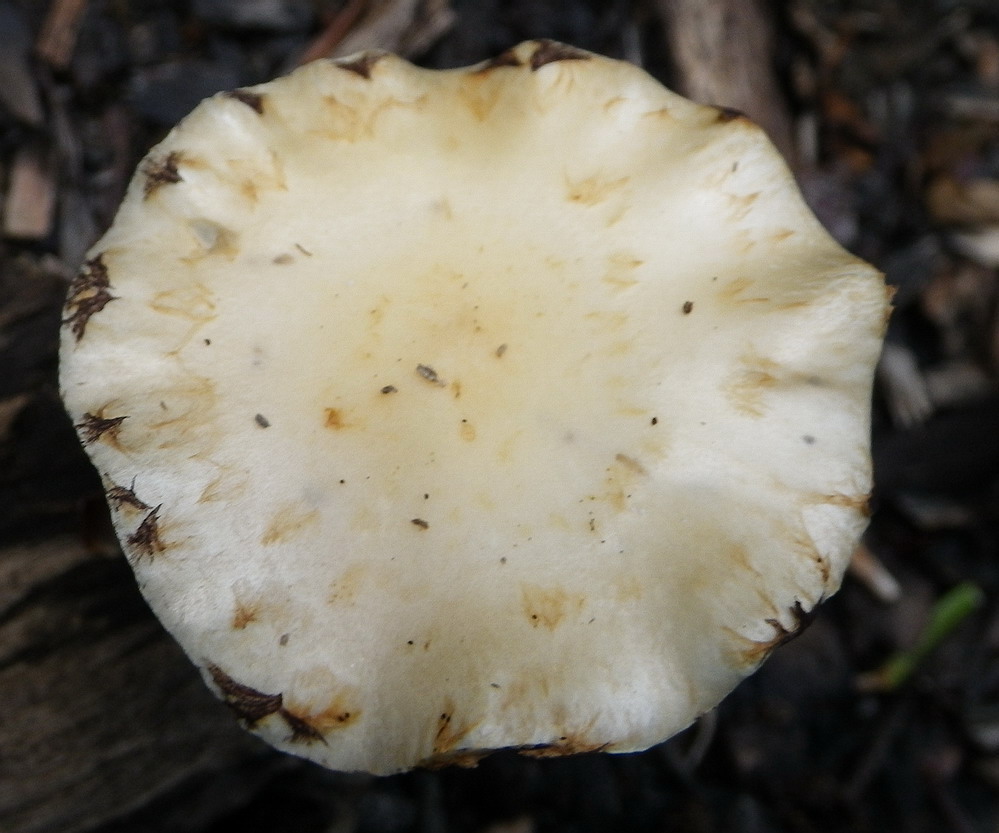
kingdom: Fungi
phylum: Basidiomycota
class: Agaricomycetes
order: Agaricales
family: Strophariaceae
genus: Leratiomyces
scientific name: Leratiomyces percevalii
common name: træflis-bredblad
